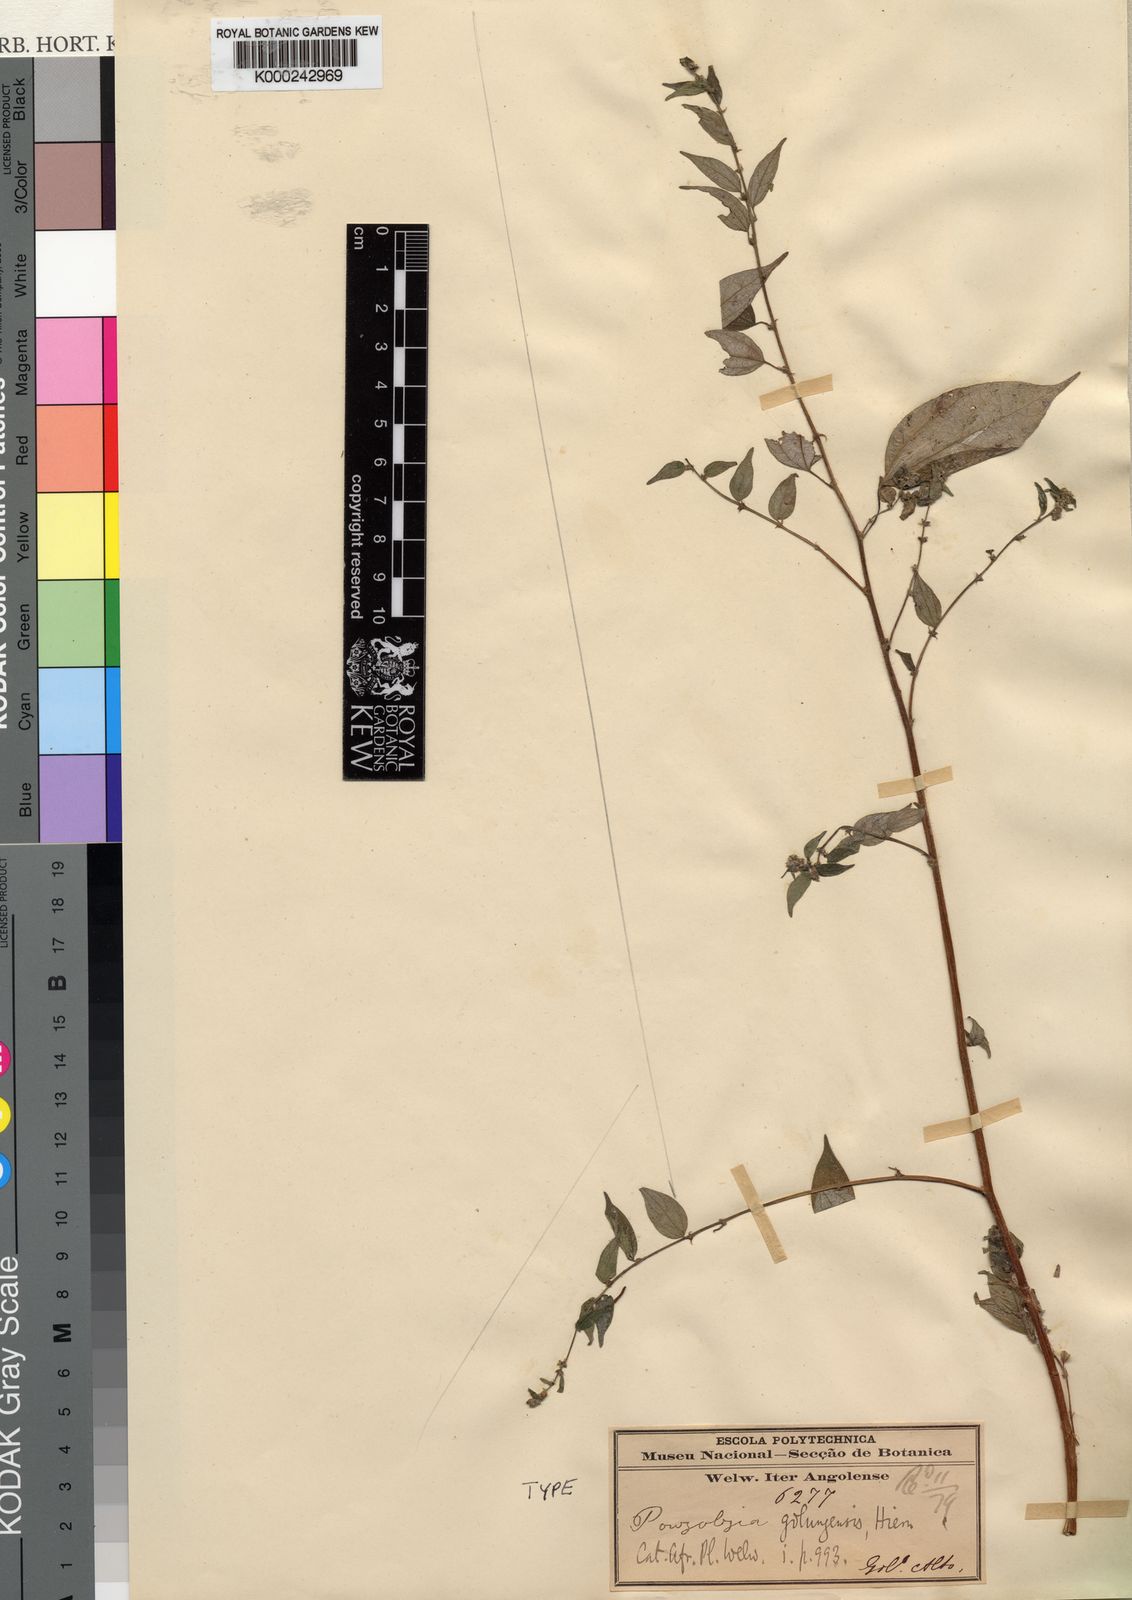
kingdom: Plantae
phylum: Tracheophyta
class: Magnoliopsida
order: Rosales
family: Urticaceae
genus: Pouzolzia
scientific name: Pouzolzia guineensis
